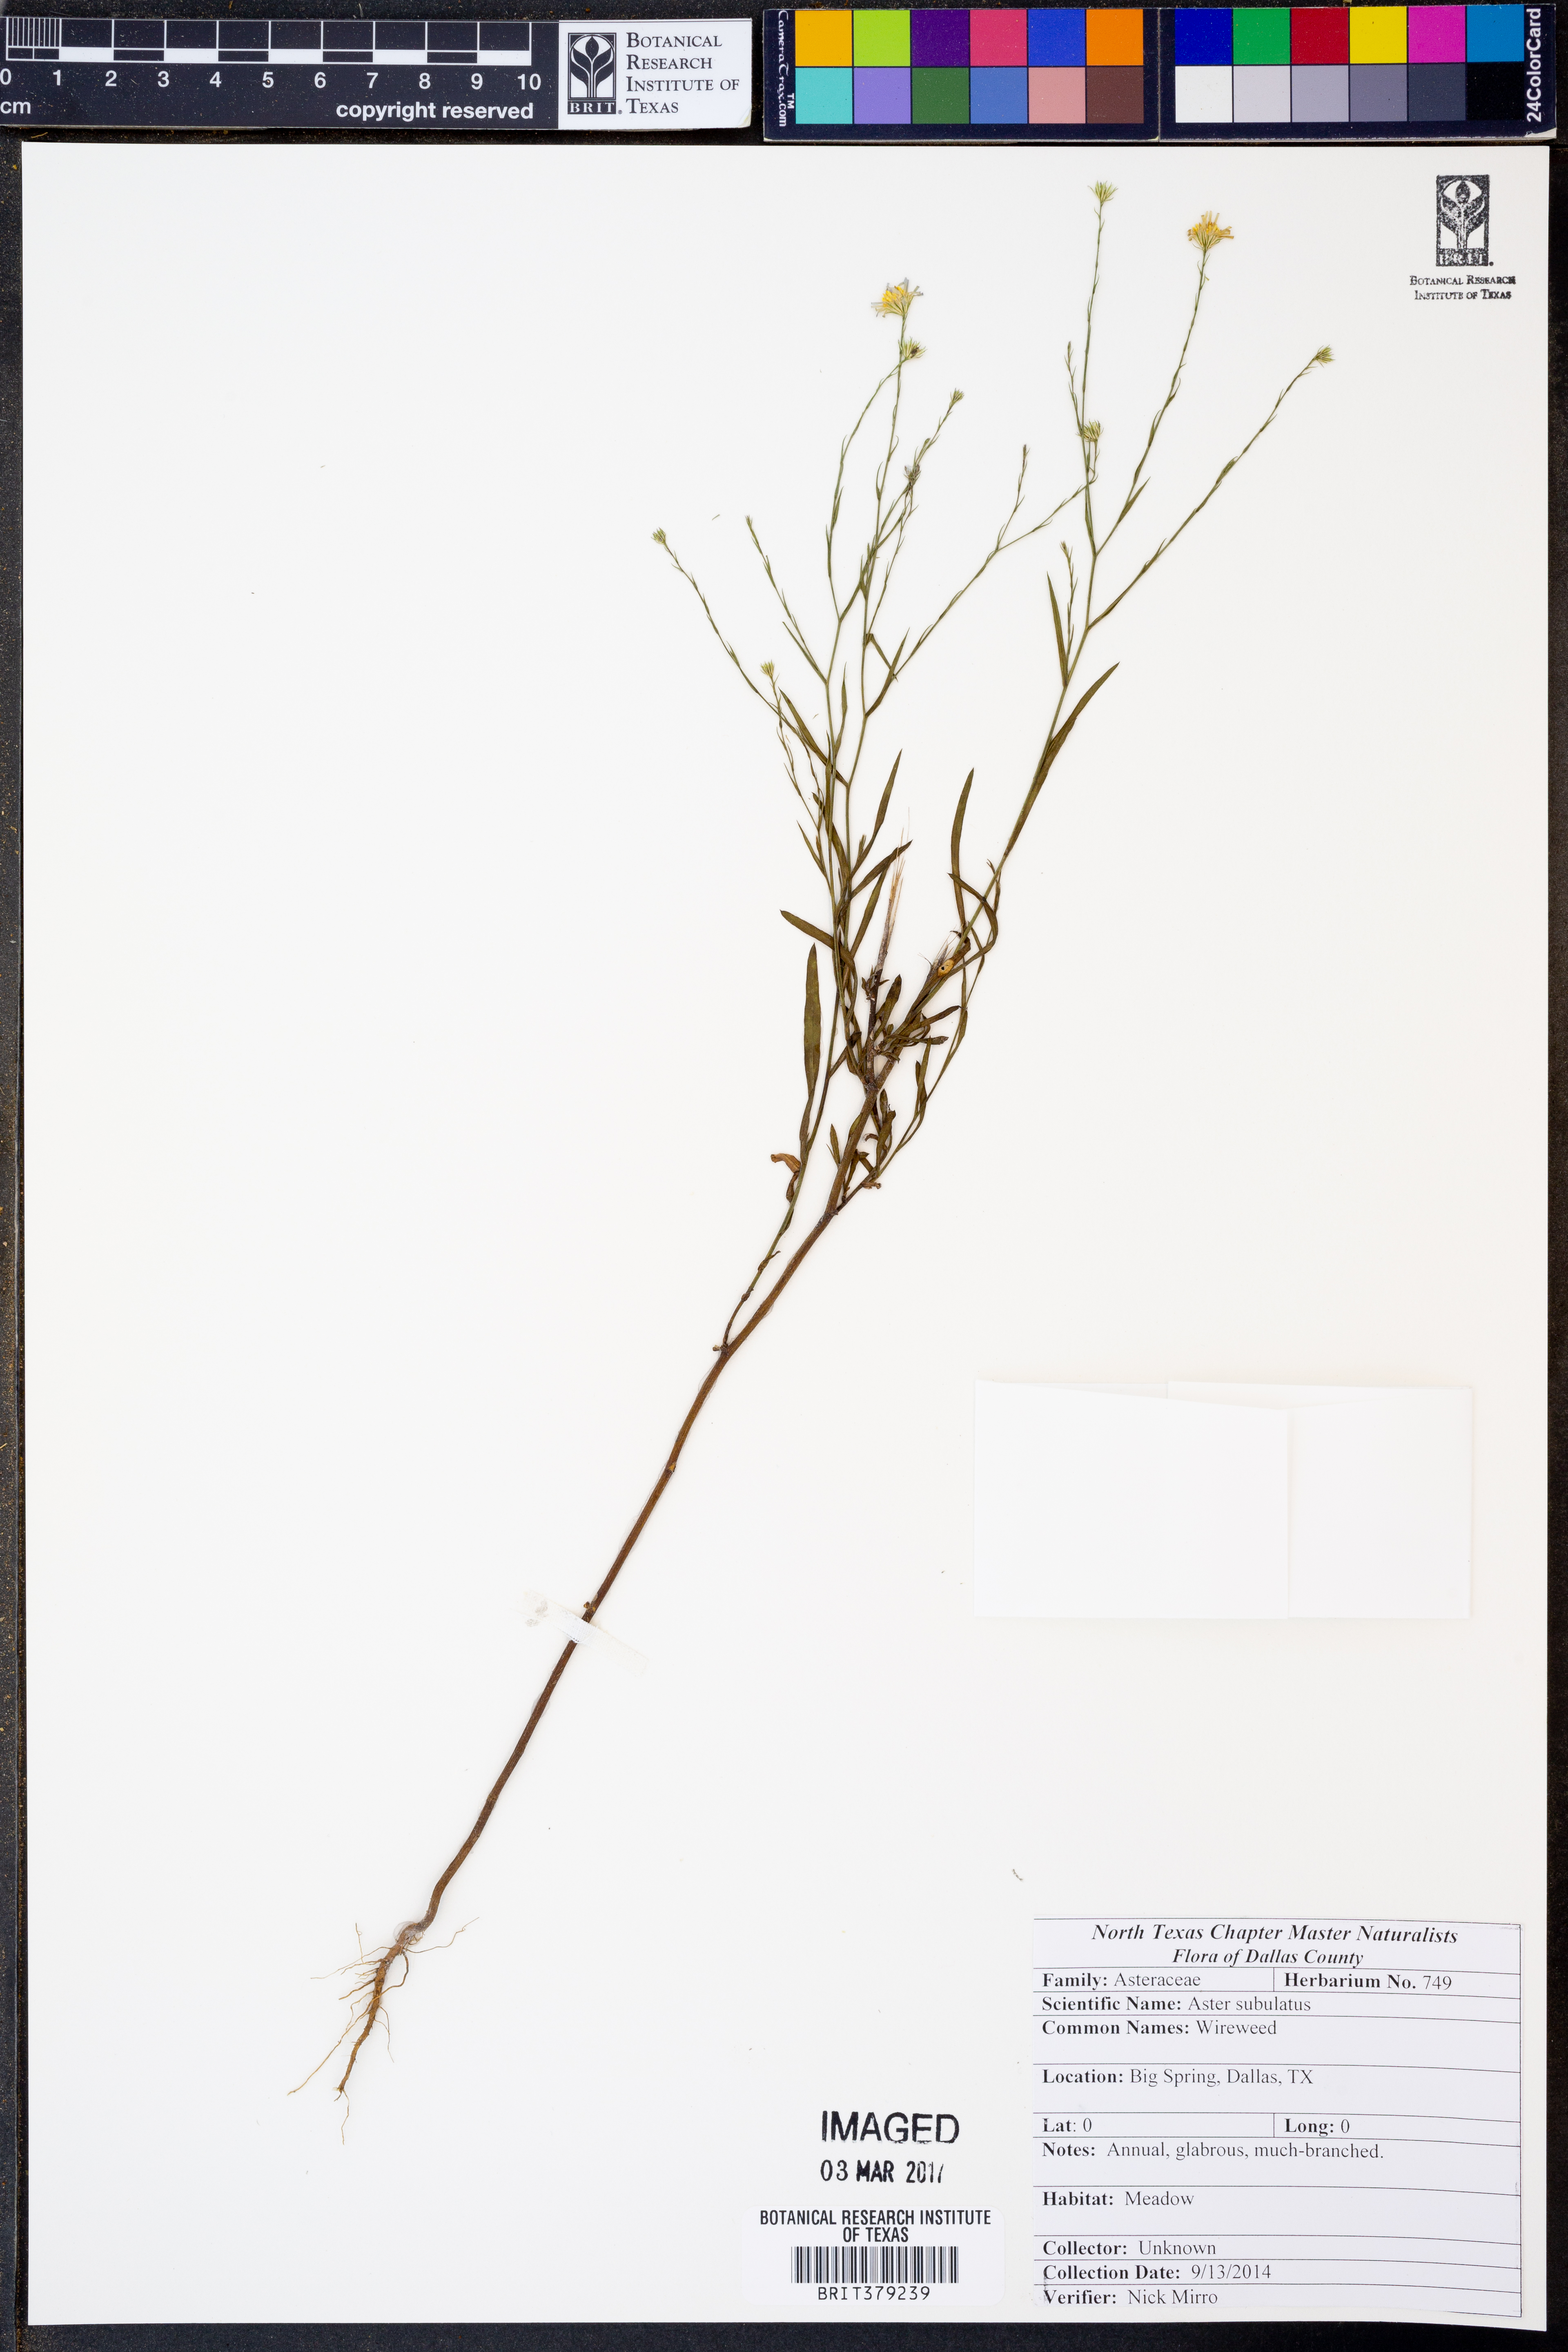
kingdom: Plantae
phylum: Tracheophyta
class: Magnoliopsida
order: Asterales
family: Asteraceae
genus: Symphyotrichum
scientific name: Symphyotrichum subulatum
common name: Annual saltmarsh aster
